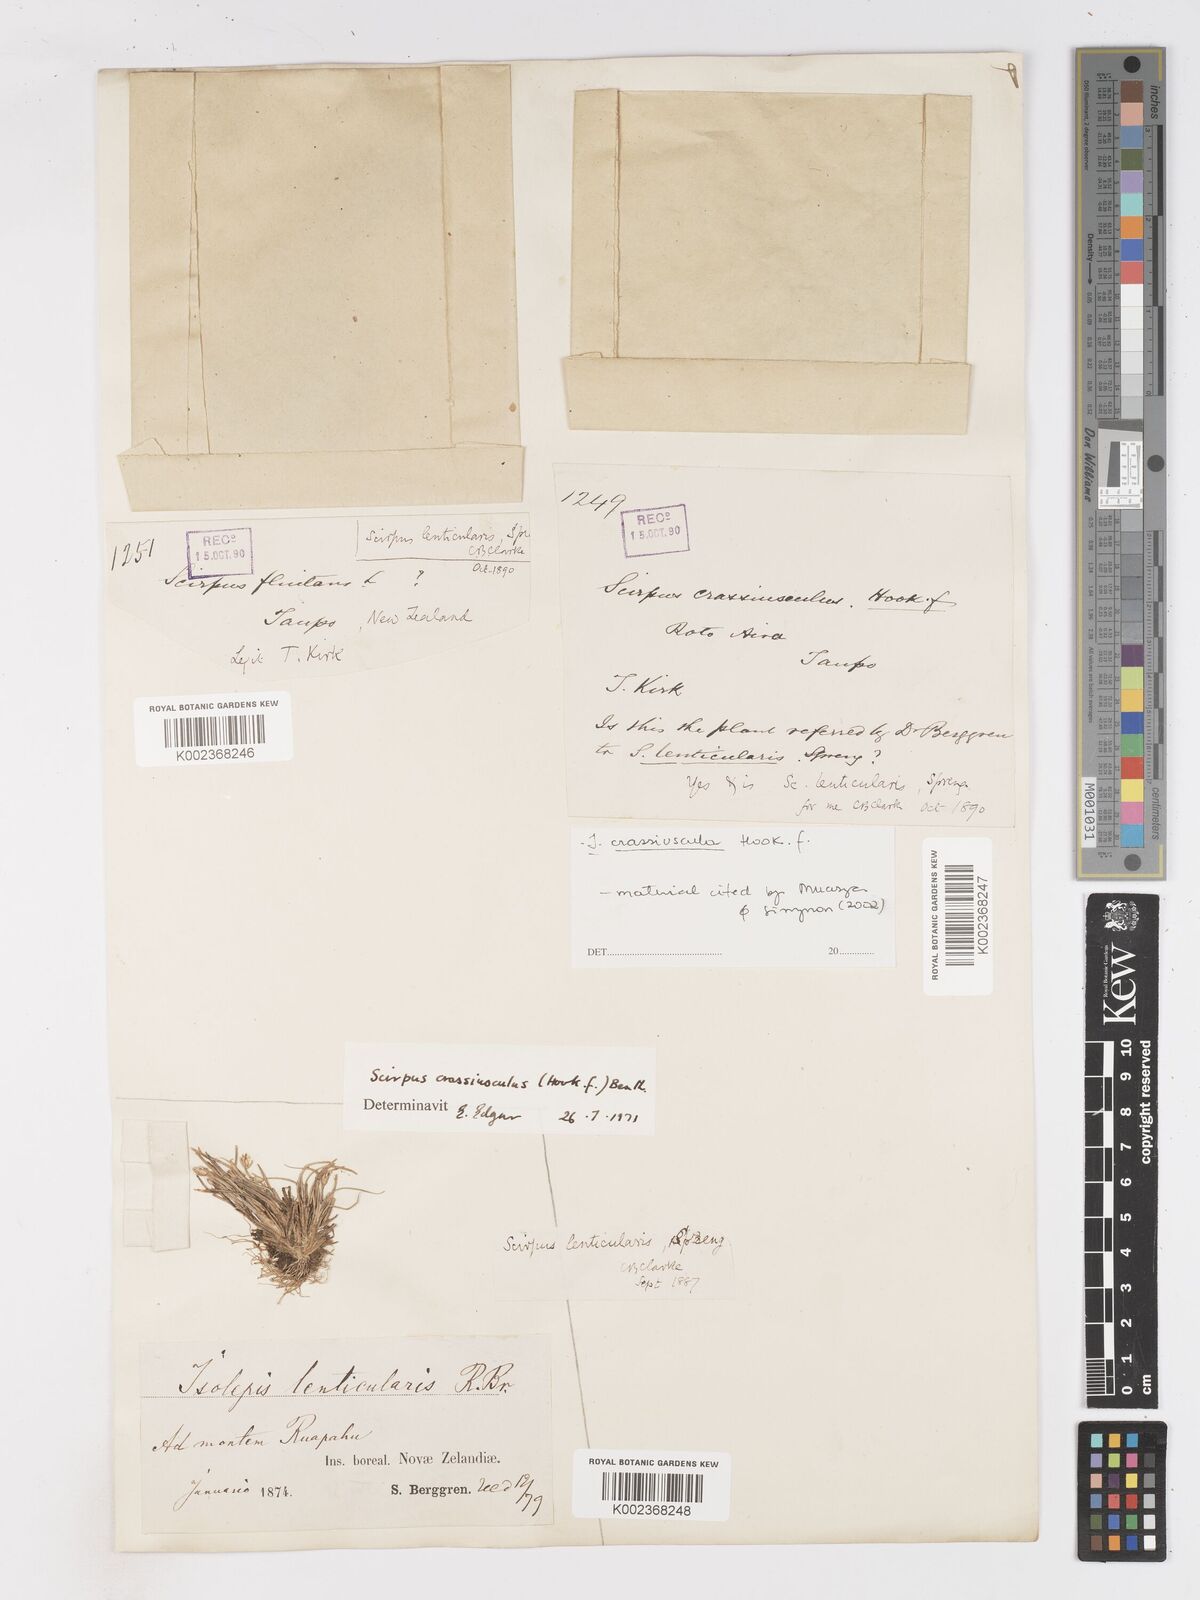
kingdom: Plantae
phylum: Tracheophyta
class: Liliopsida
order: Poales
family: Cyperaceae
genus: Isolepis
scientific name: Isolepis crassiuscula
